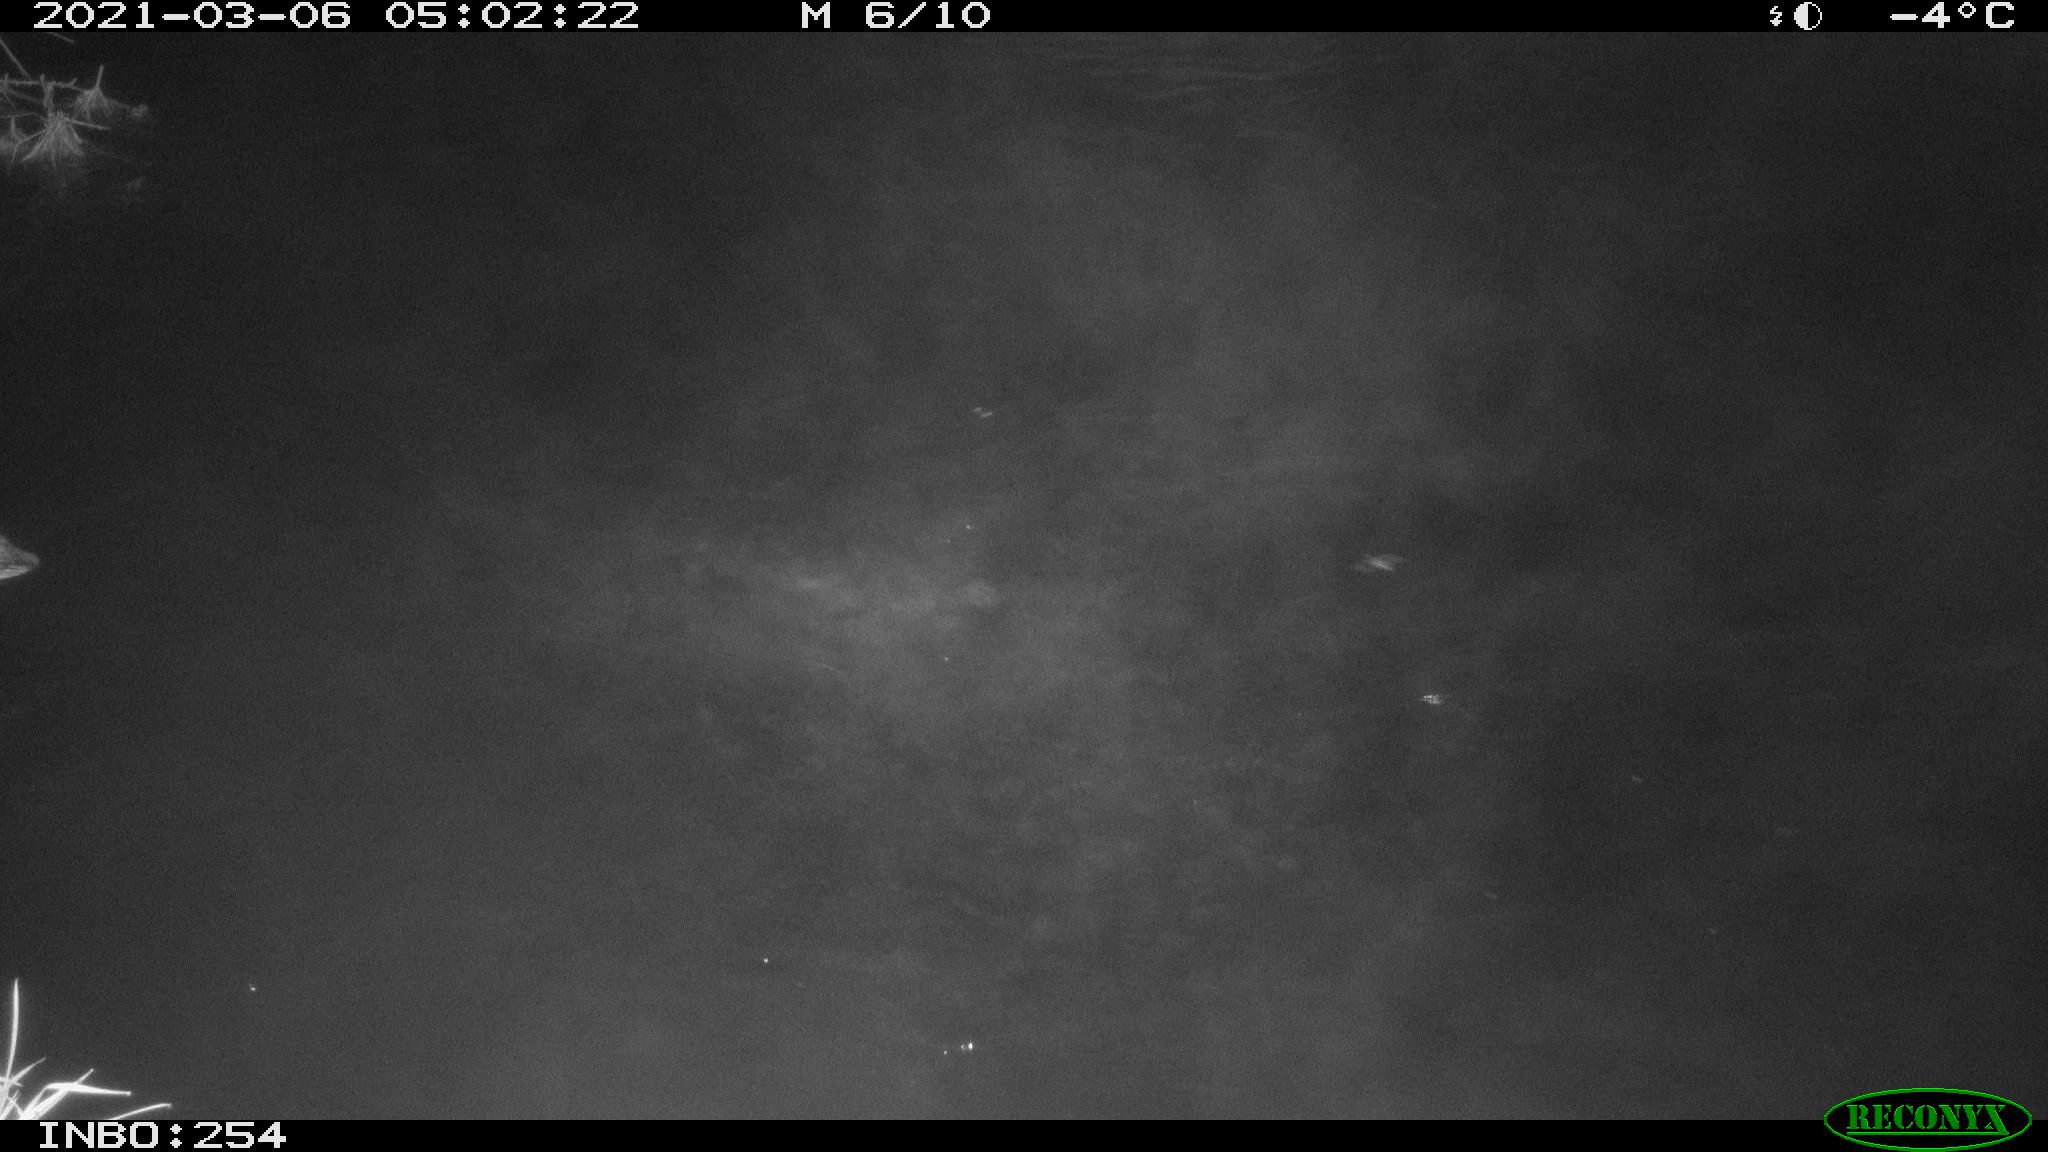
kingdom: Animalia
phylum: Chordata
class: Aves
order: Anseriformes
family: Anatidae
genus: Anas
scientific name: Anas platyrhynchos
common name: Mallard
